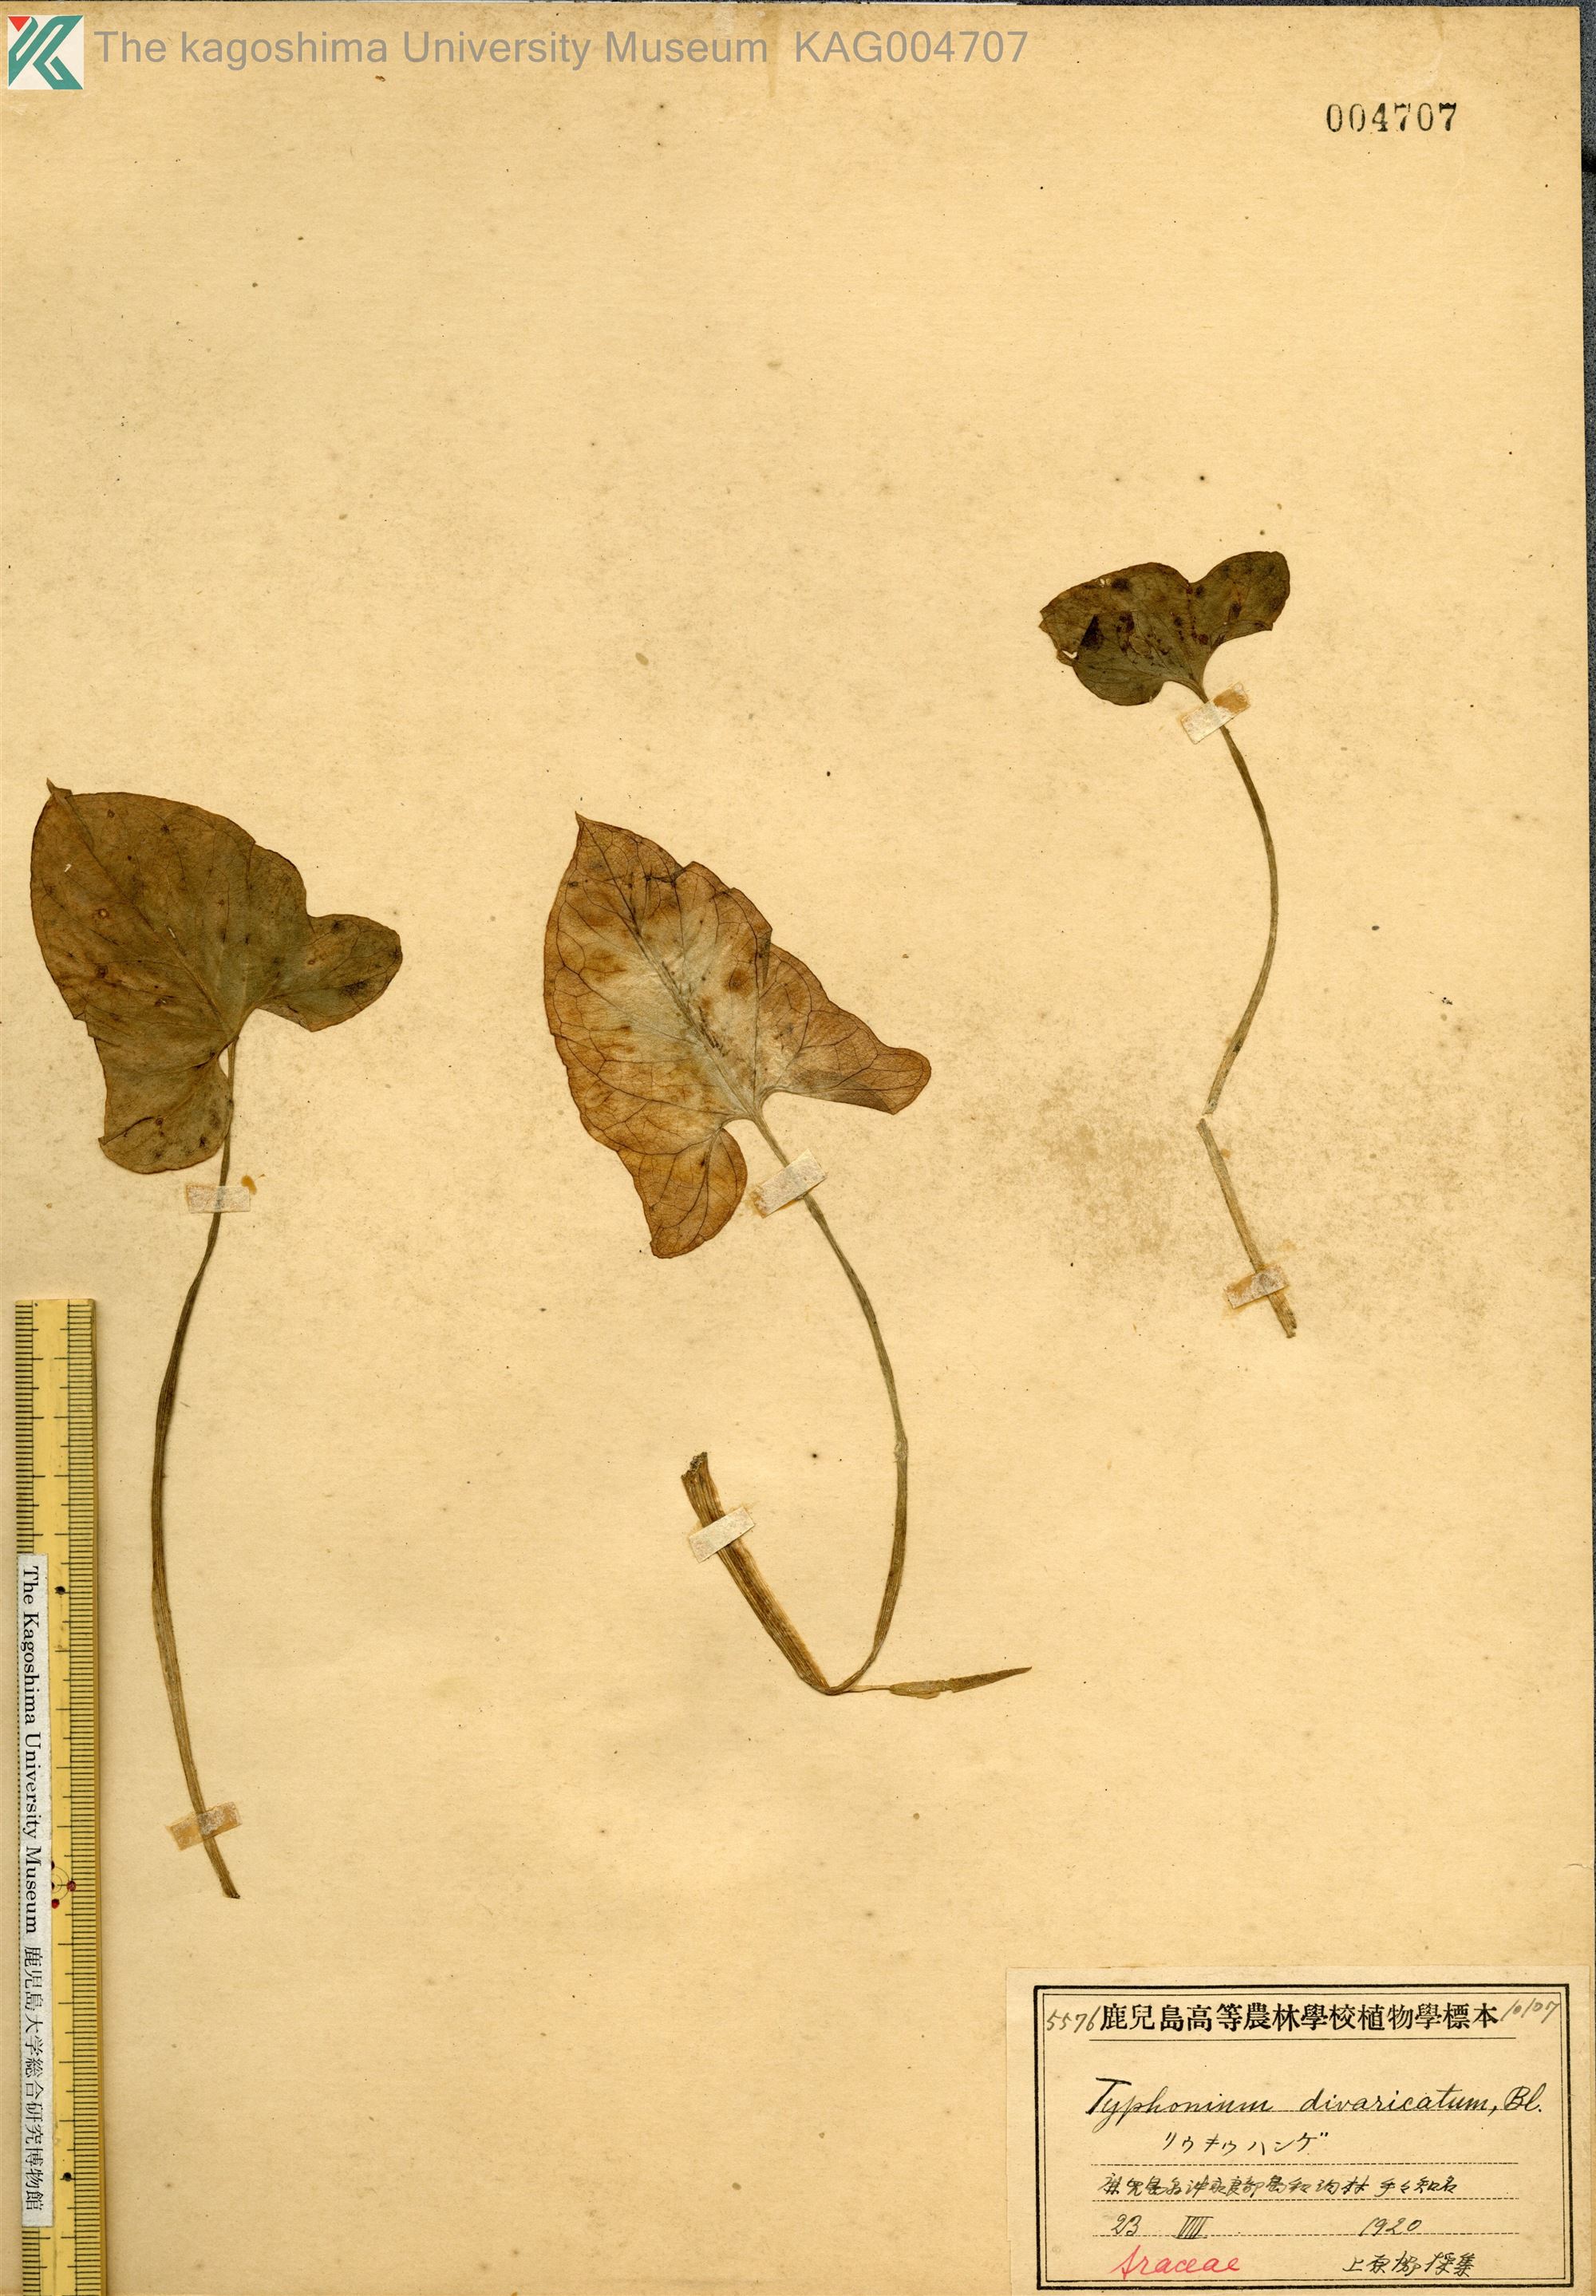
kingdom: Plantae
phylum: Tracheophyta
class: Liliopsida
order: Alismatales
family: Araceae
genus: Typhonium
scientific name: Typhonium
